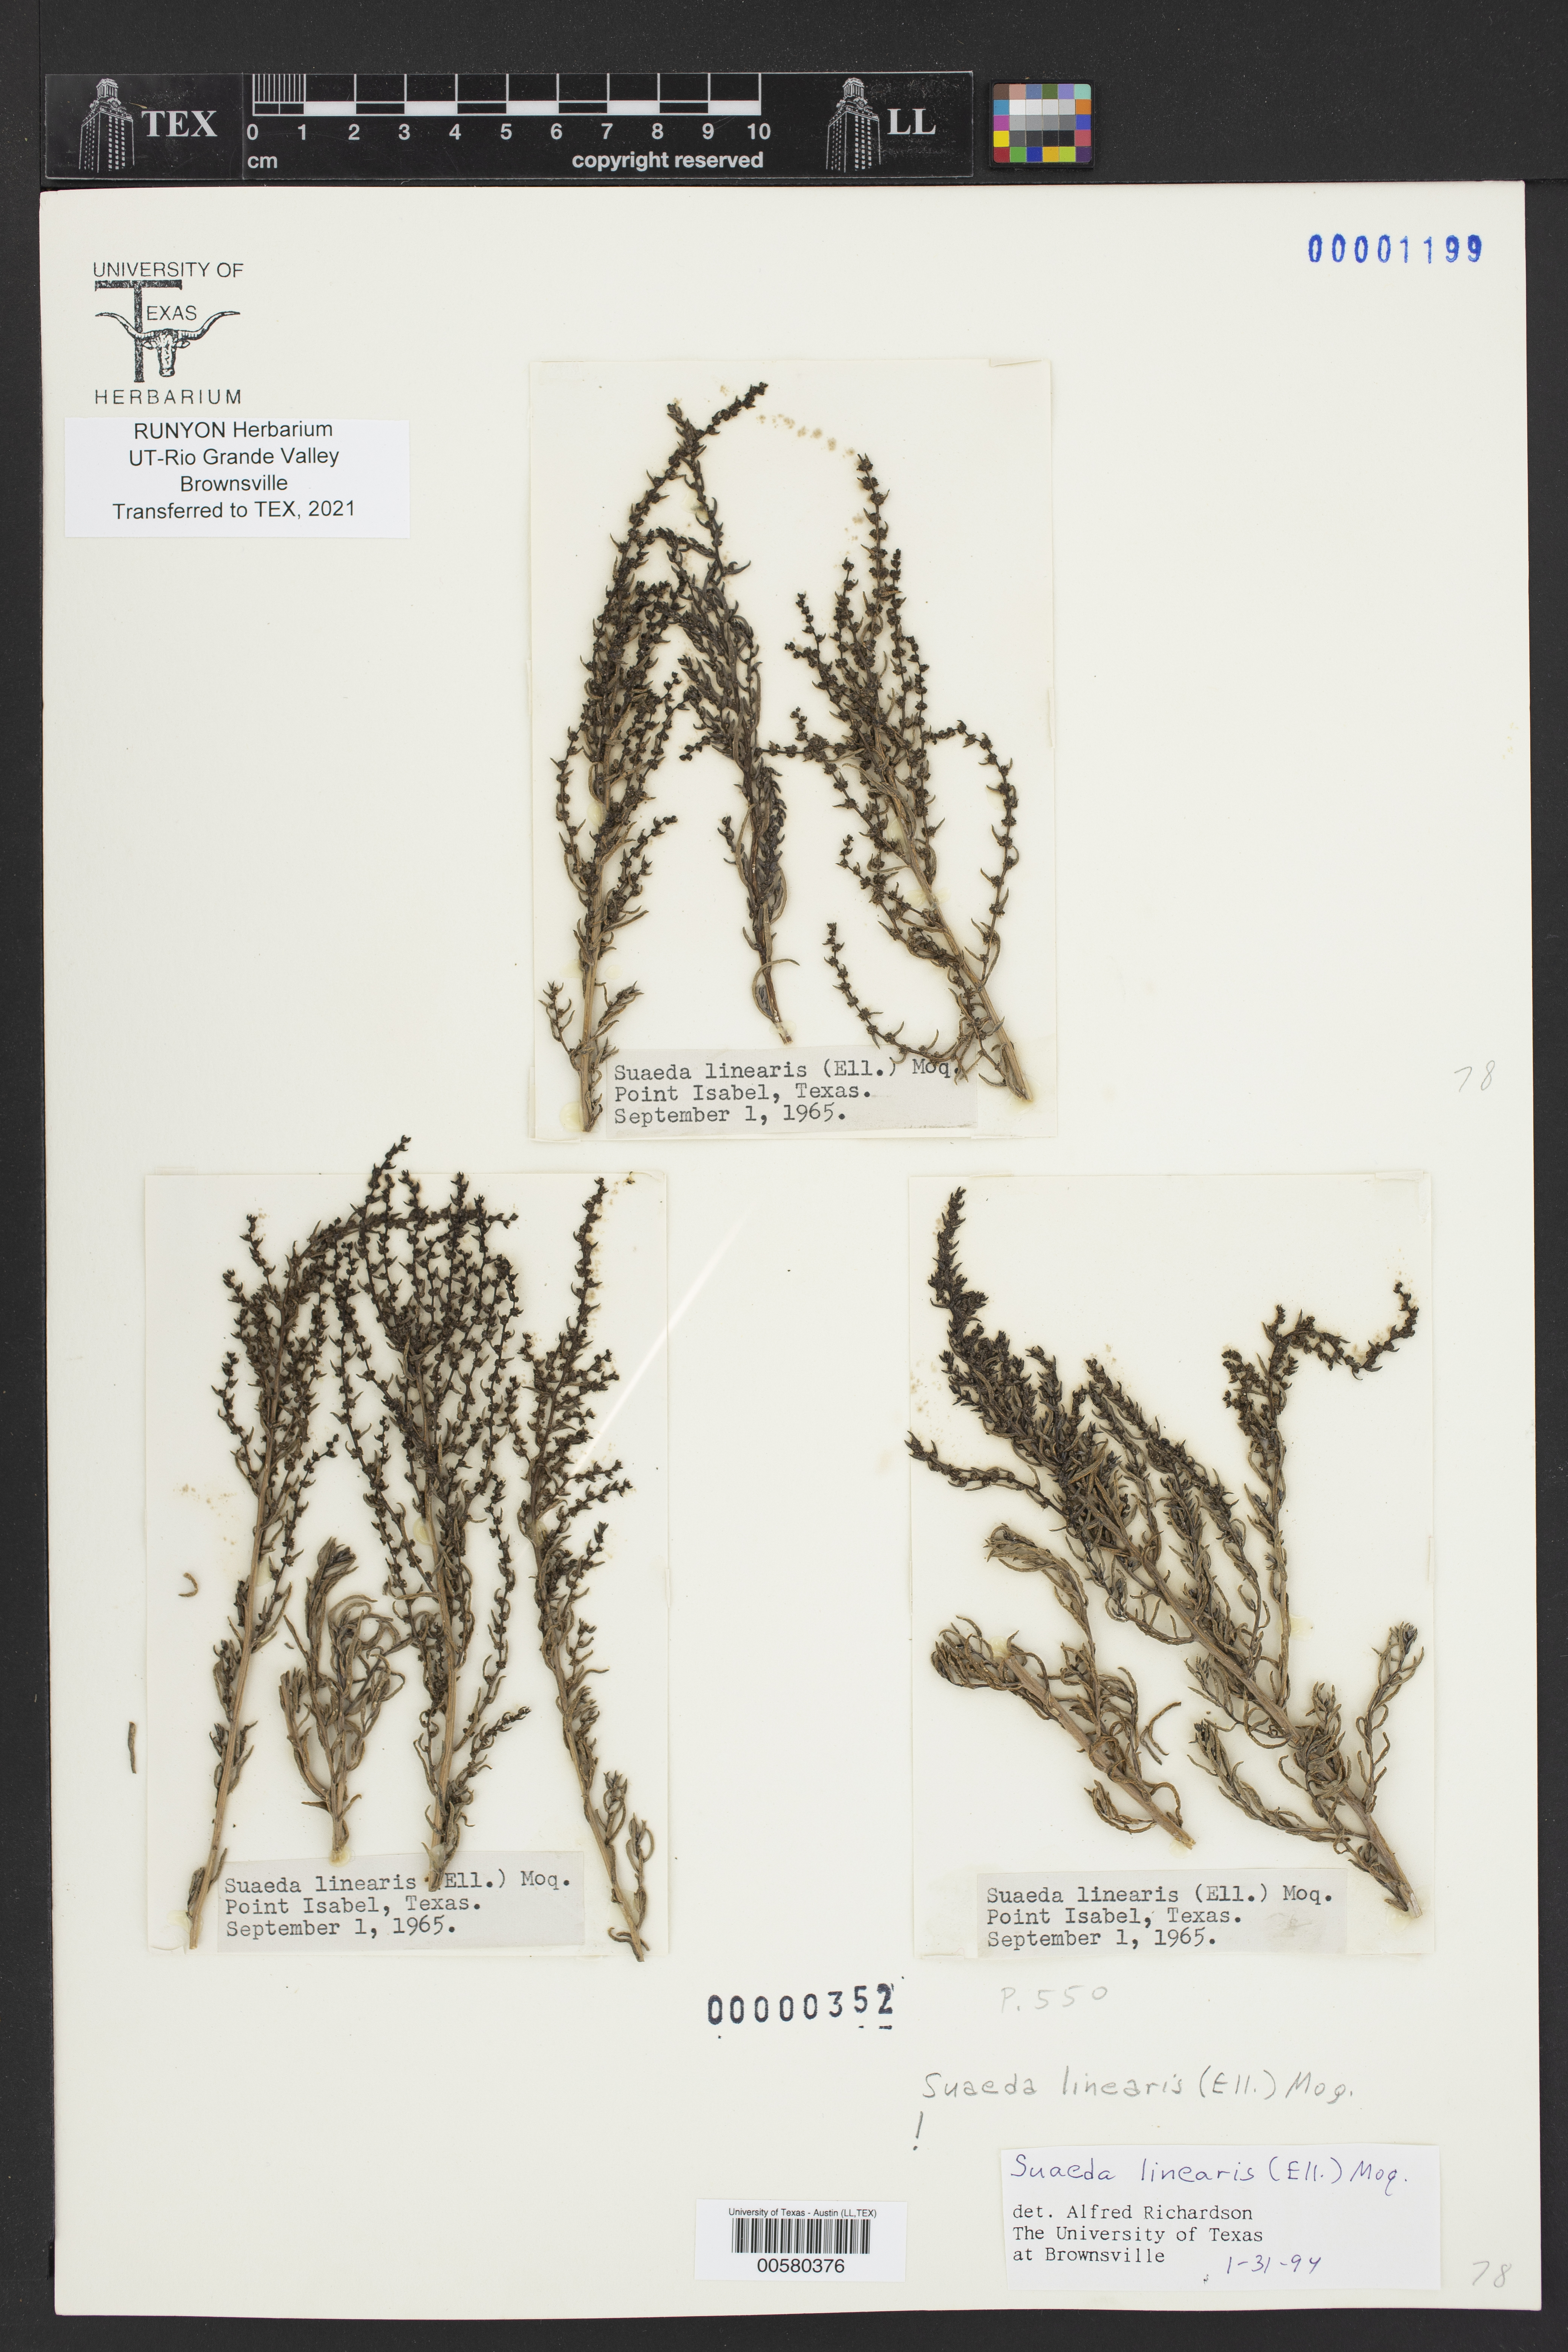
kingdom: Plantae
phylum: Tracheophyta
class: Magnoliopsida
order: Caryophyllales
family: Amaranthaceae
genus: Suaeda
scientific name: Suaeda linearis
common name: Annual seepweed
